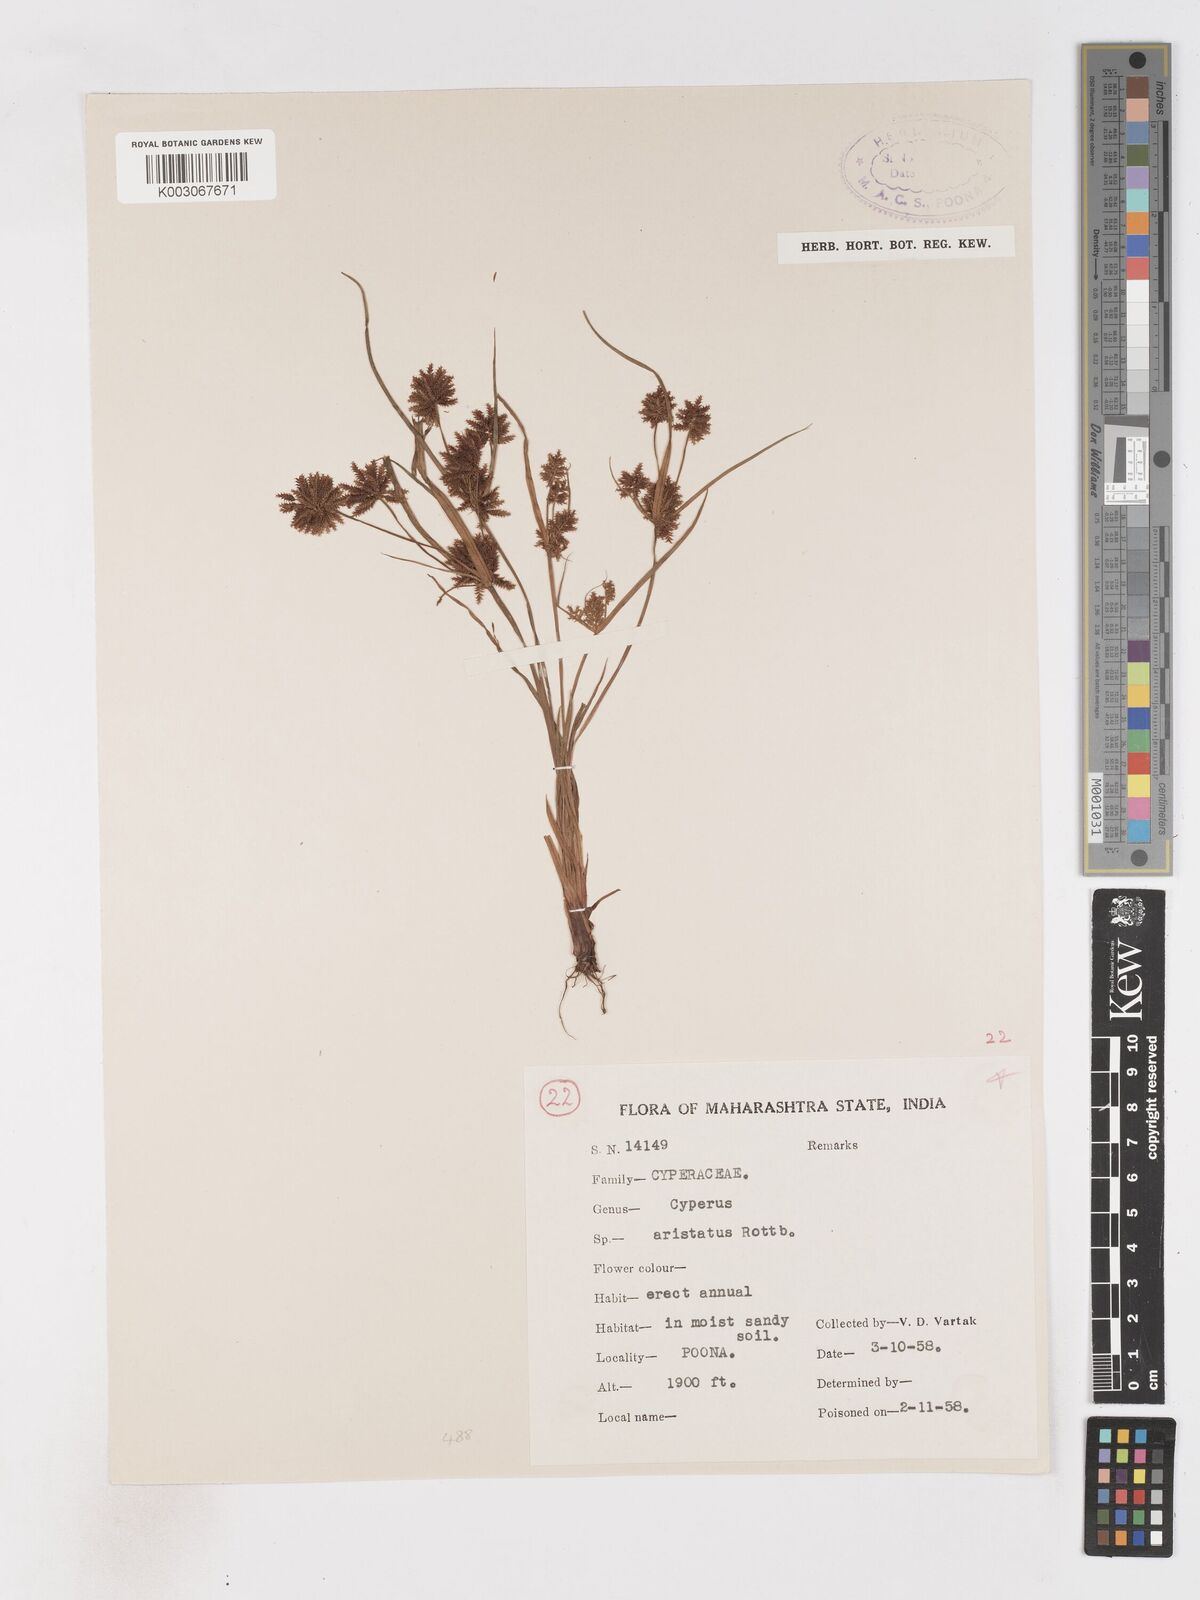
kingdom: Plantae
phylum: Tracheophyta
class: Liliopsida
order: Poales
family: Cyperaceae
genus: Cyperus
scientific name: Cyperus squarrosus
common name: Awned cyperus
